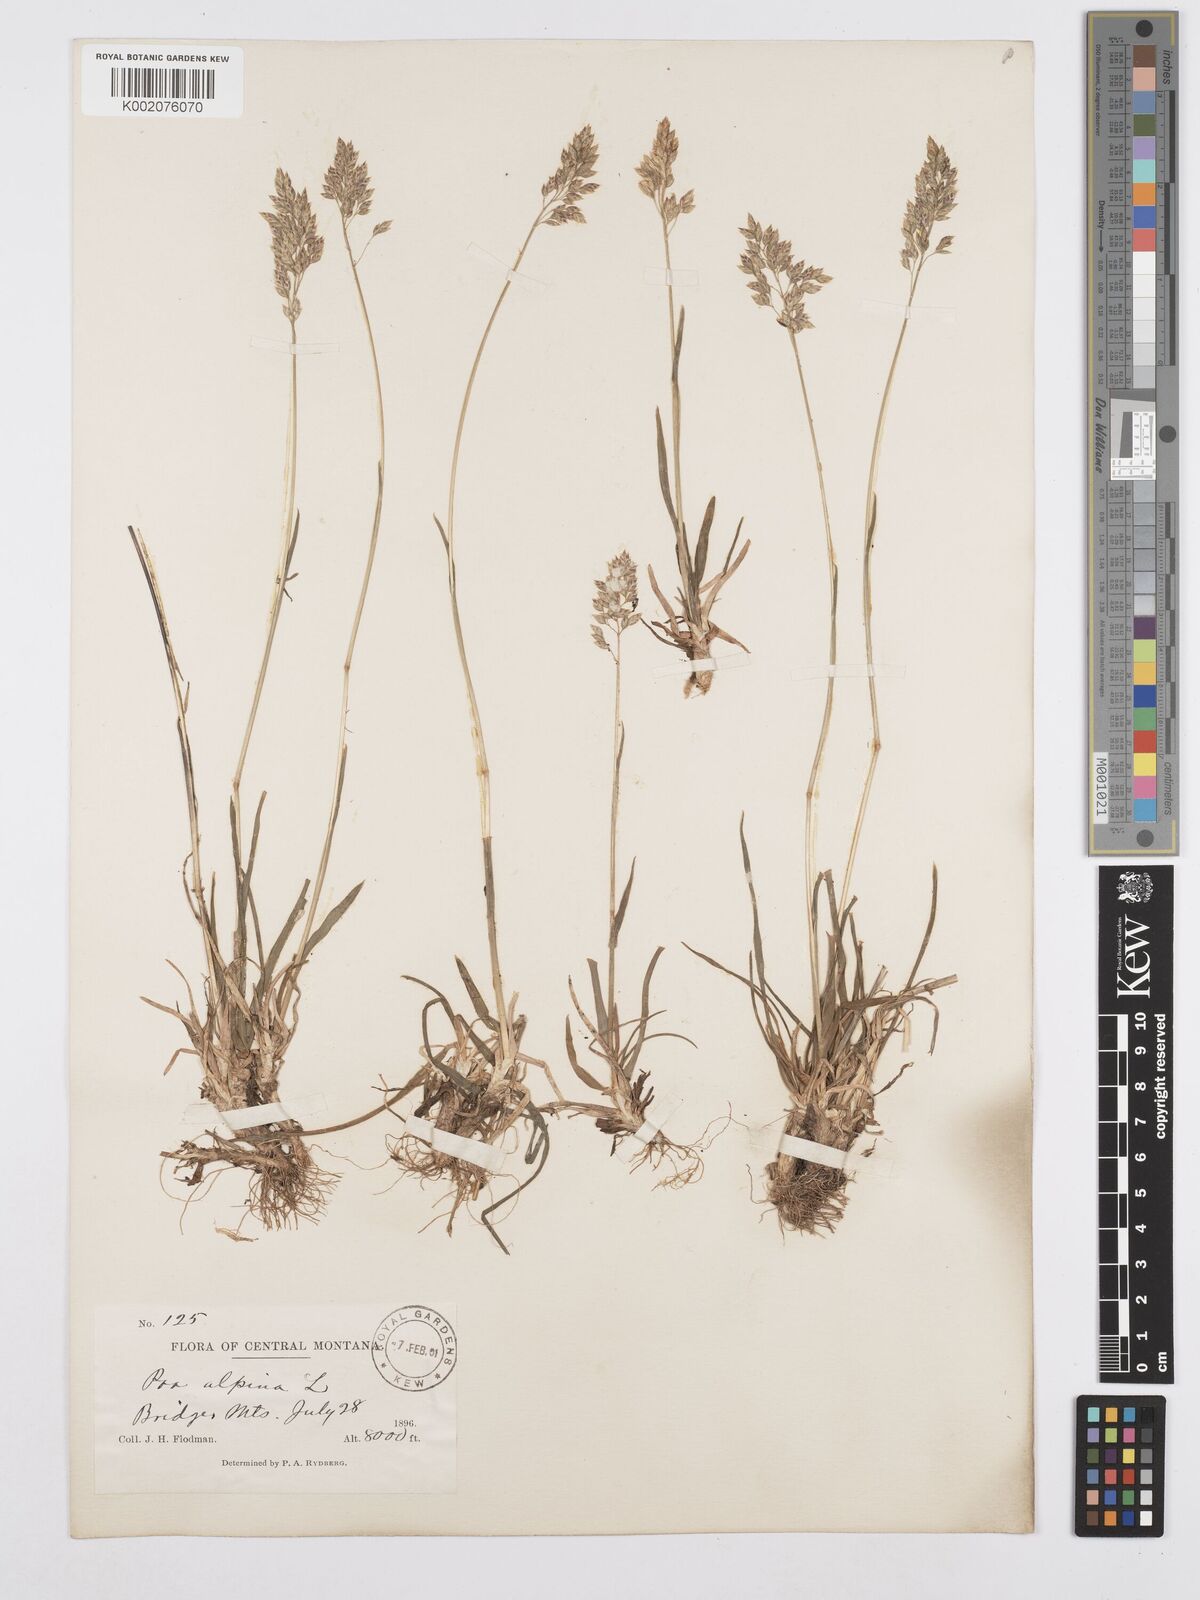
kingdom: Plantae
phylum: Tracheophyta
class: Liliopsida
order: Poales
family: Poaceae
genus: Poa
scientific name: Poa alpina
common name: Alpine bluegrass
